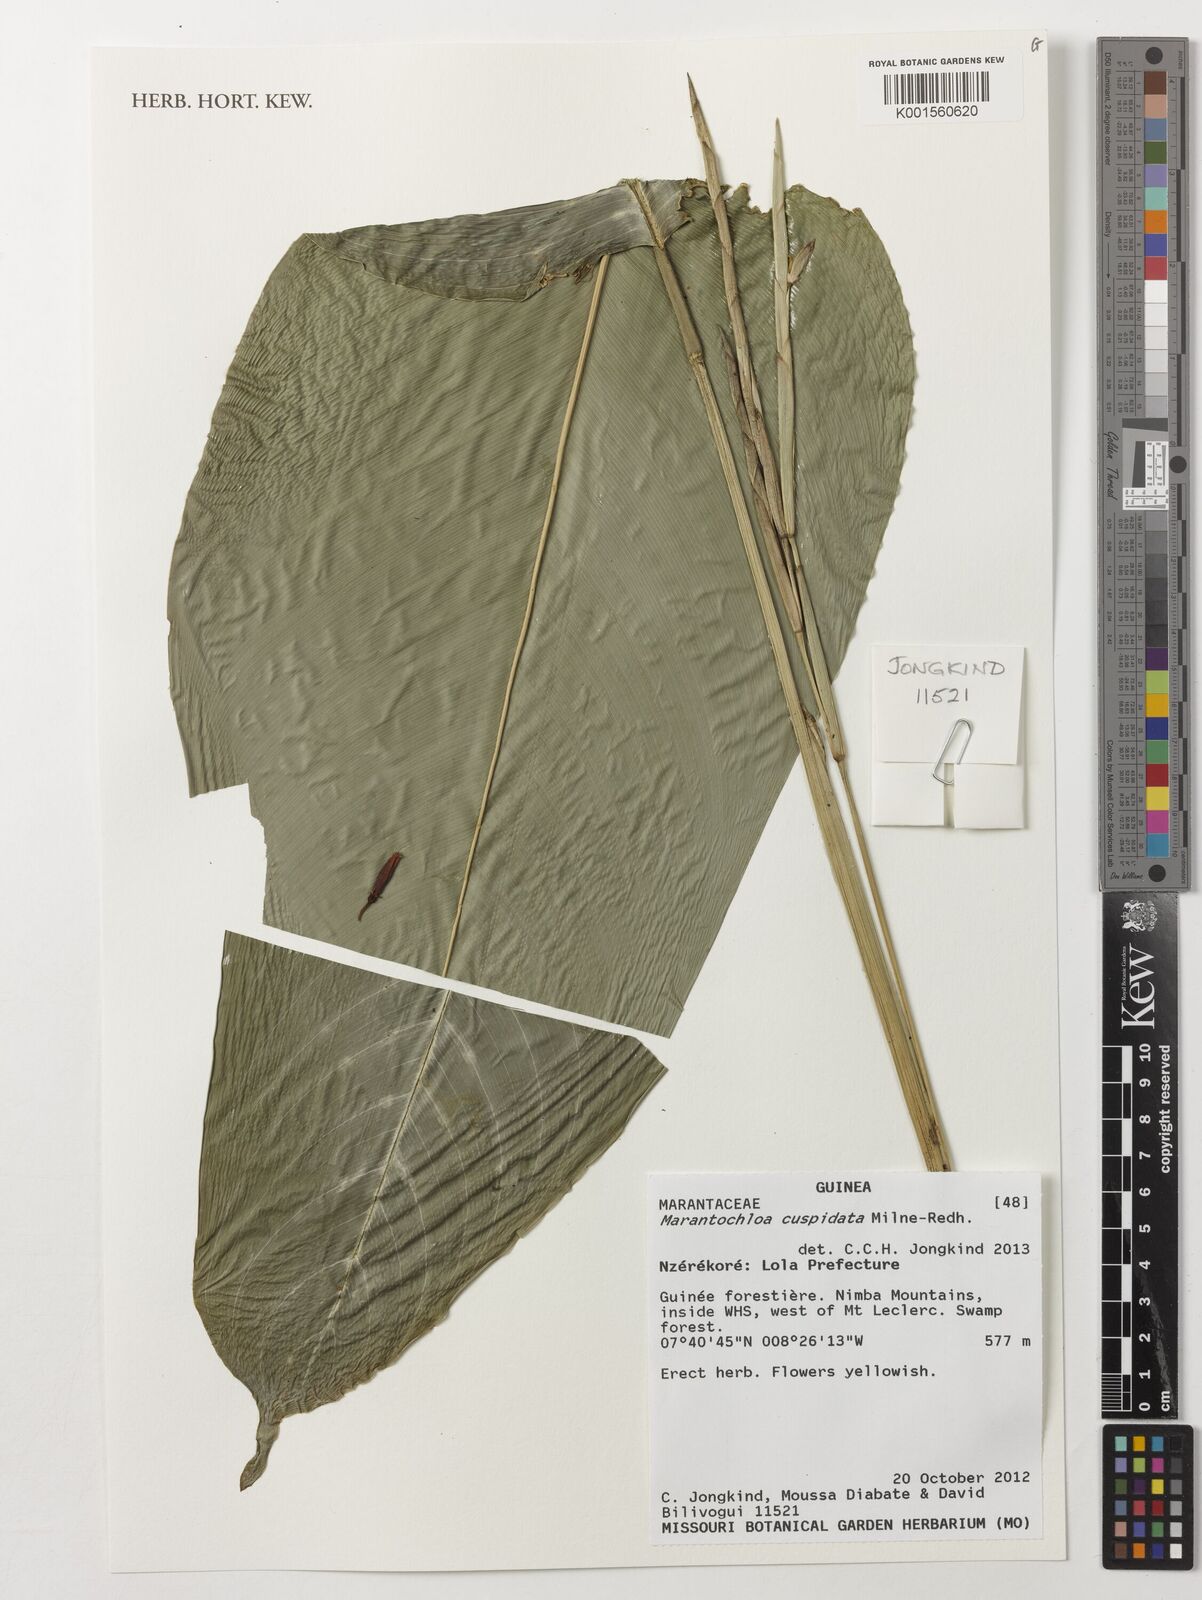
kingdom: Plantae
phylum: Tracheophyta
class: Liliopsida
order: Zingiberales
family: Marantaceae
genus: Marantochloa
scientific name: Marantochloa cuspidata
